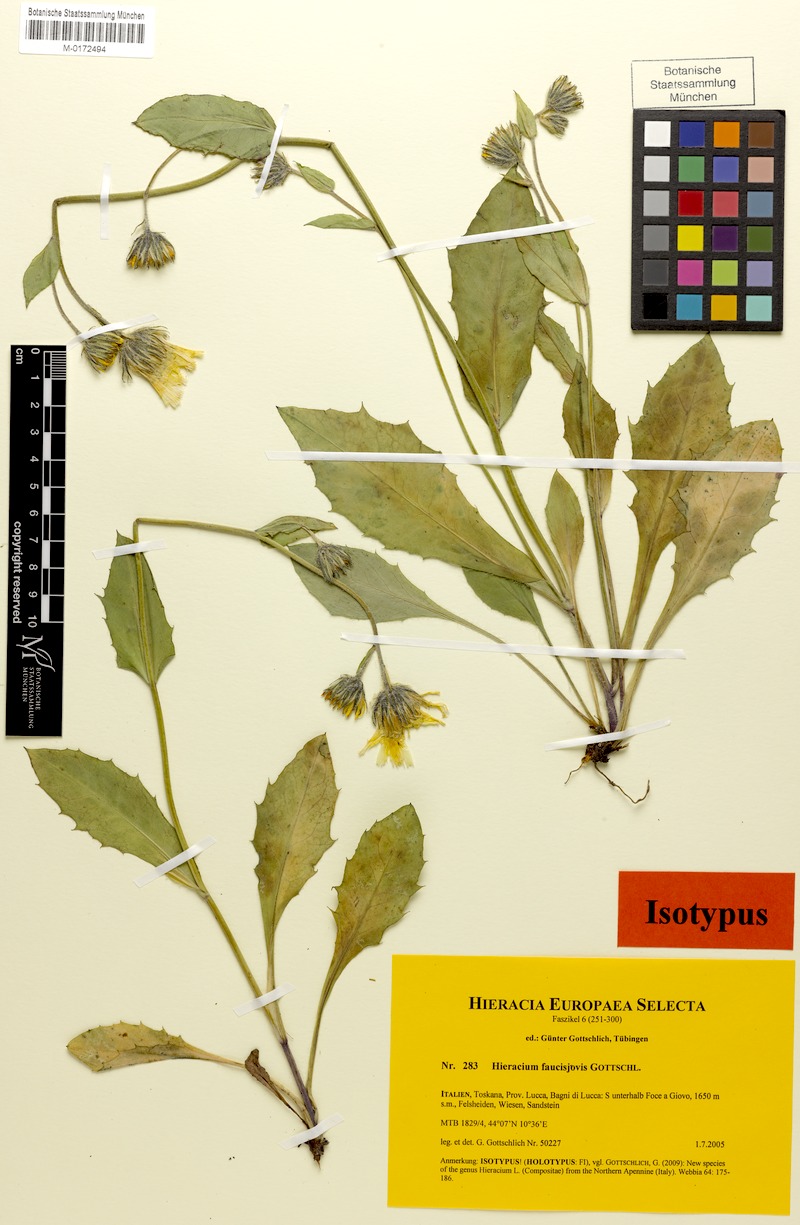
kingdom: Plantae
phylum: Tracheophyta
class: Magnoliopsida
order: Asterales
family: Asteraceae
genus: Hieracium
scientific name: Hieracium faucisjovis
